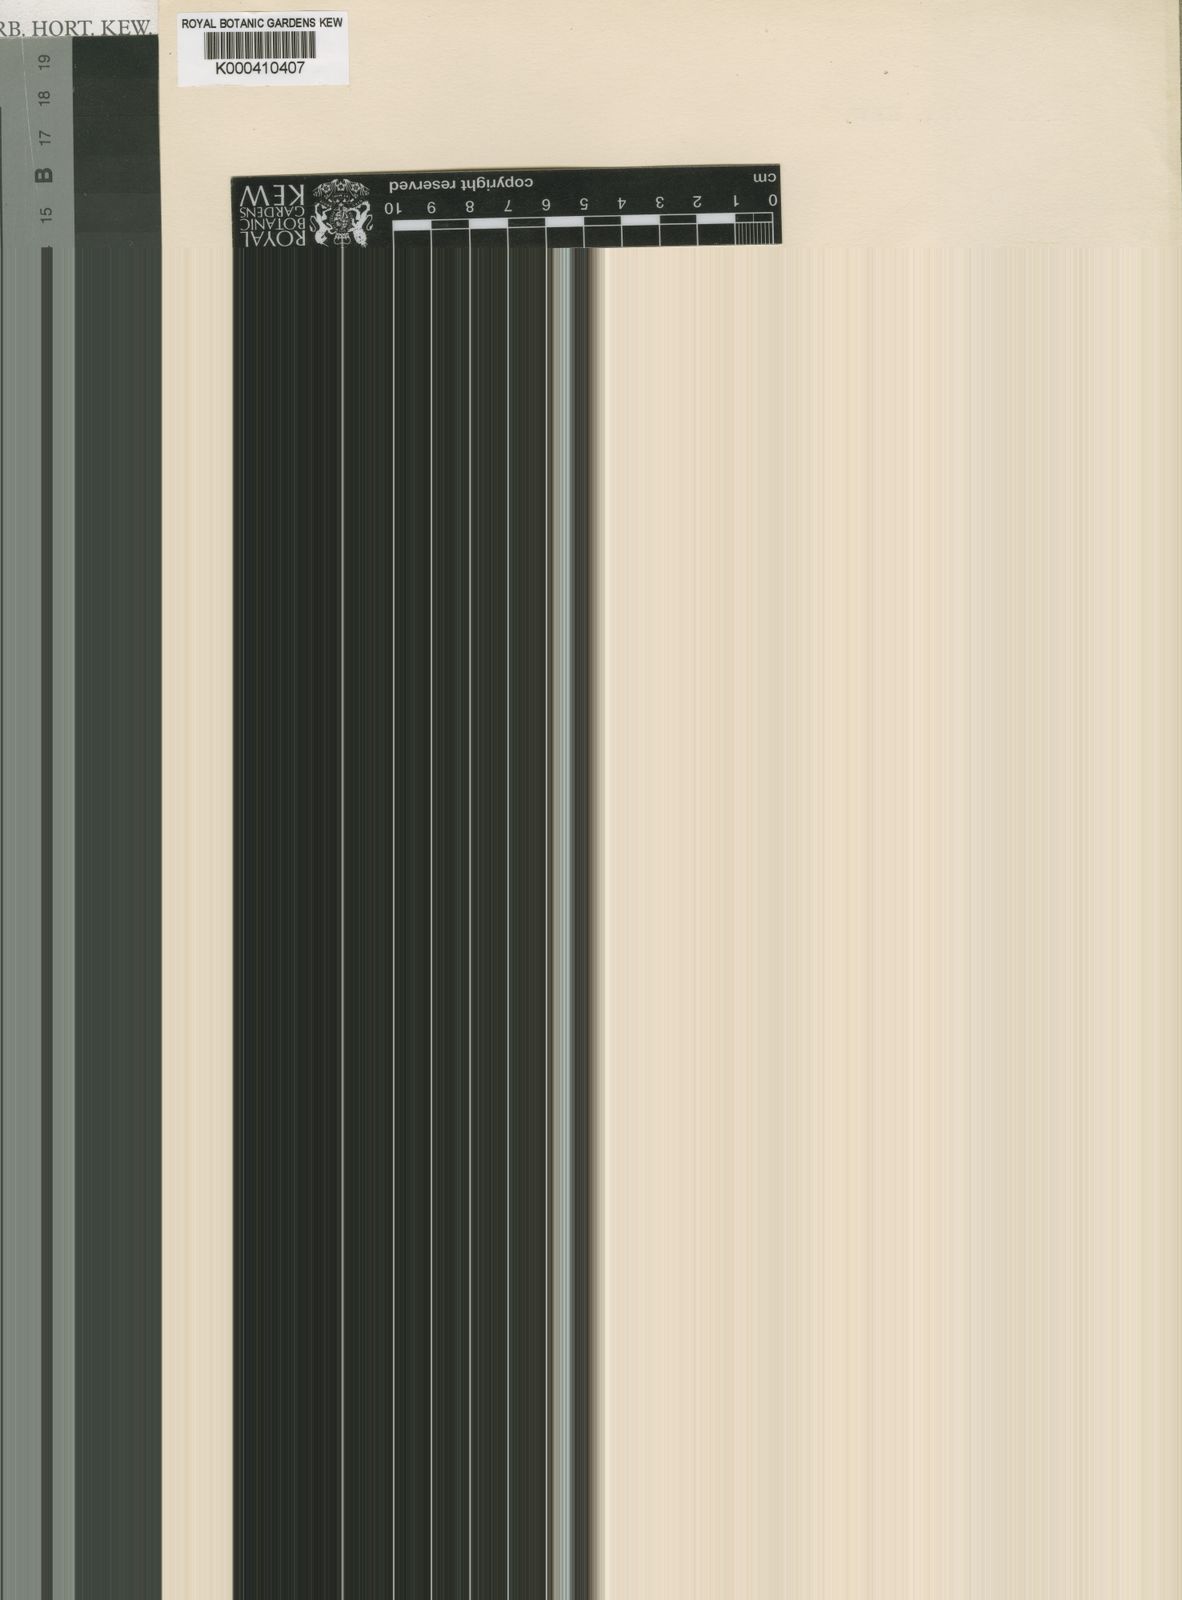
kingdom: Plantae
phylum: Tracheophyta
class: Liliopsida
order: Asparagales
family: Orchidaceae
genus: Eulophia
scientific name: Eulophia milnei
